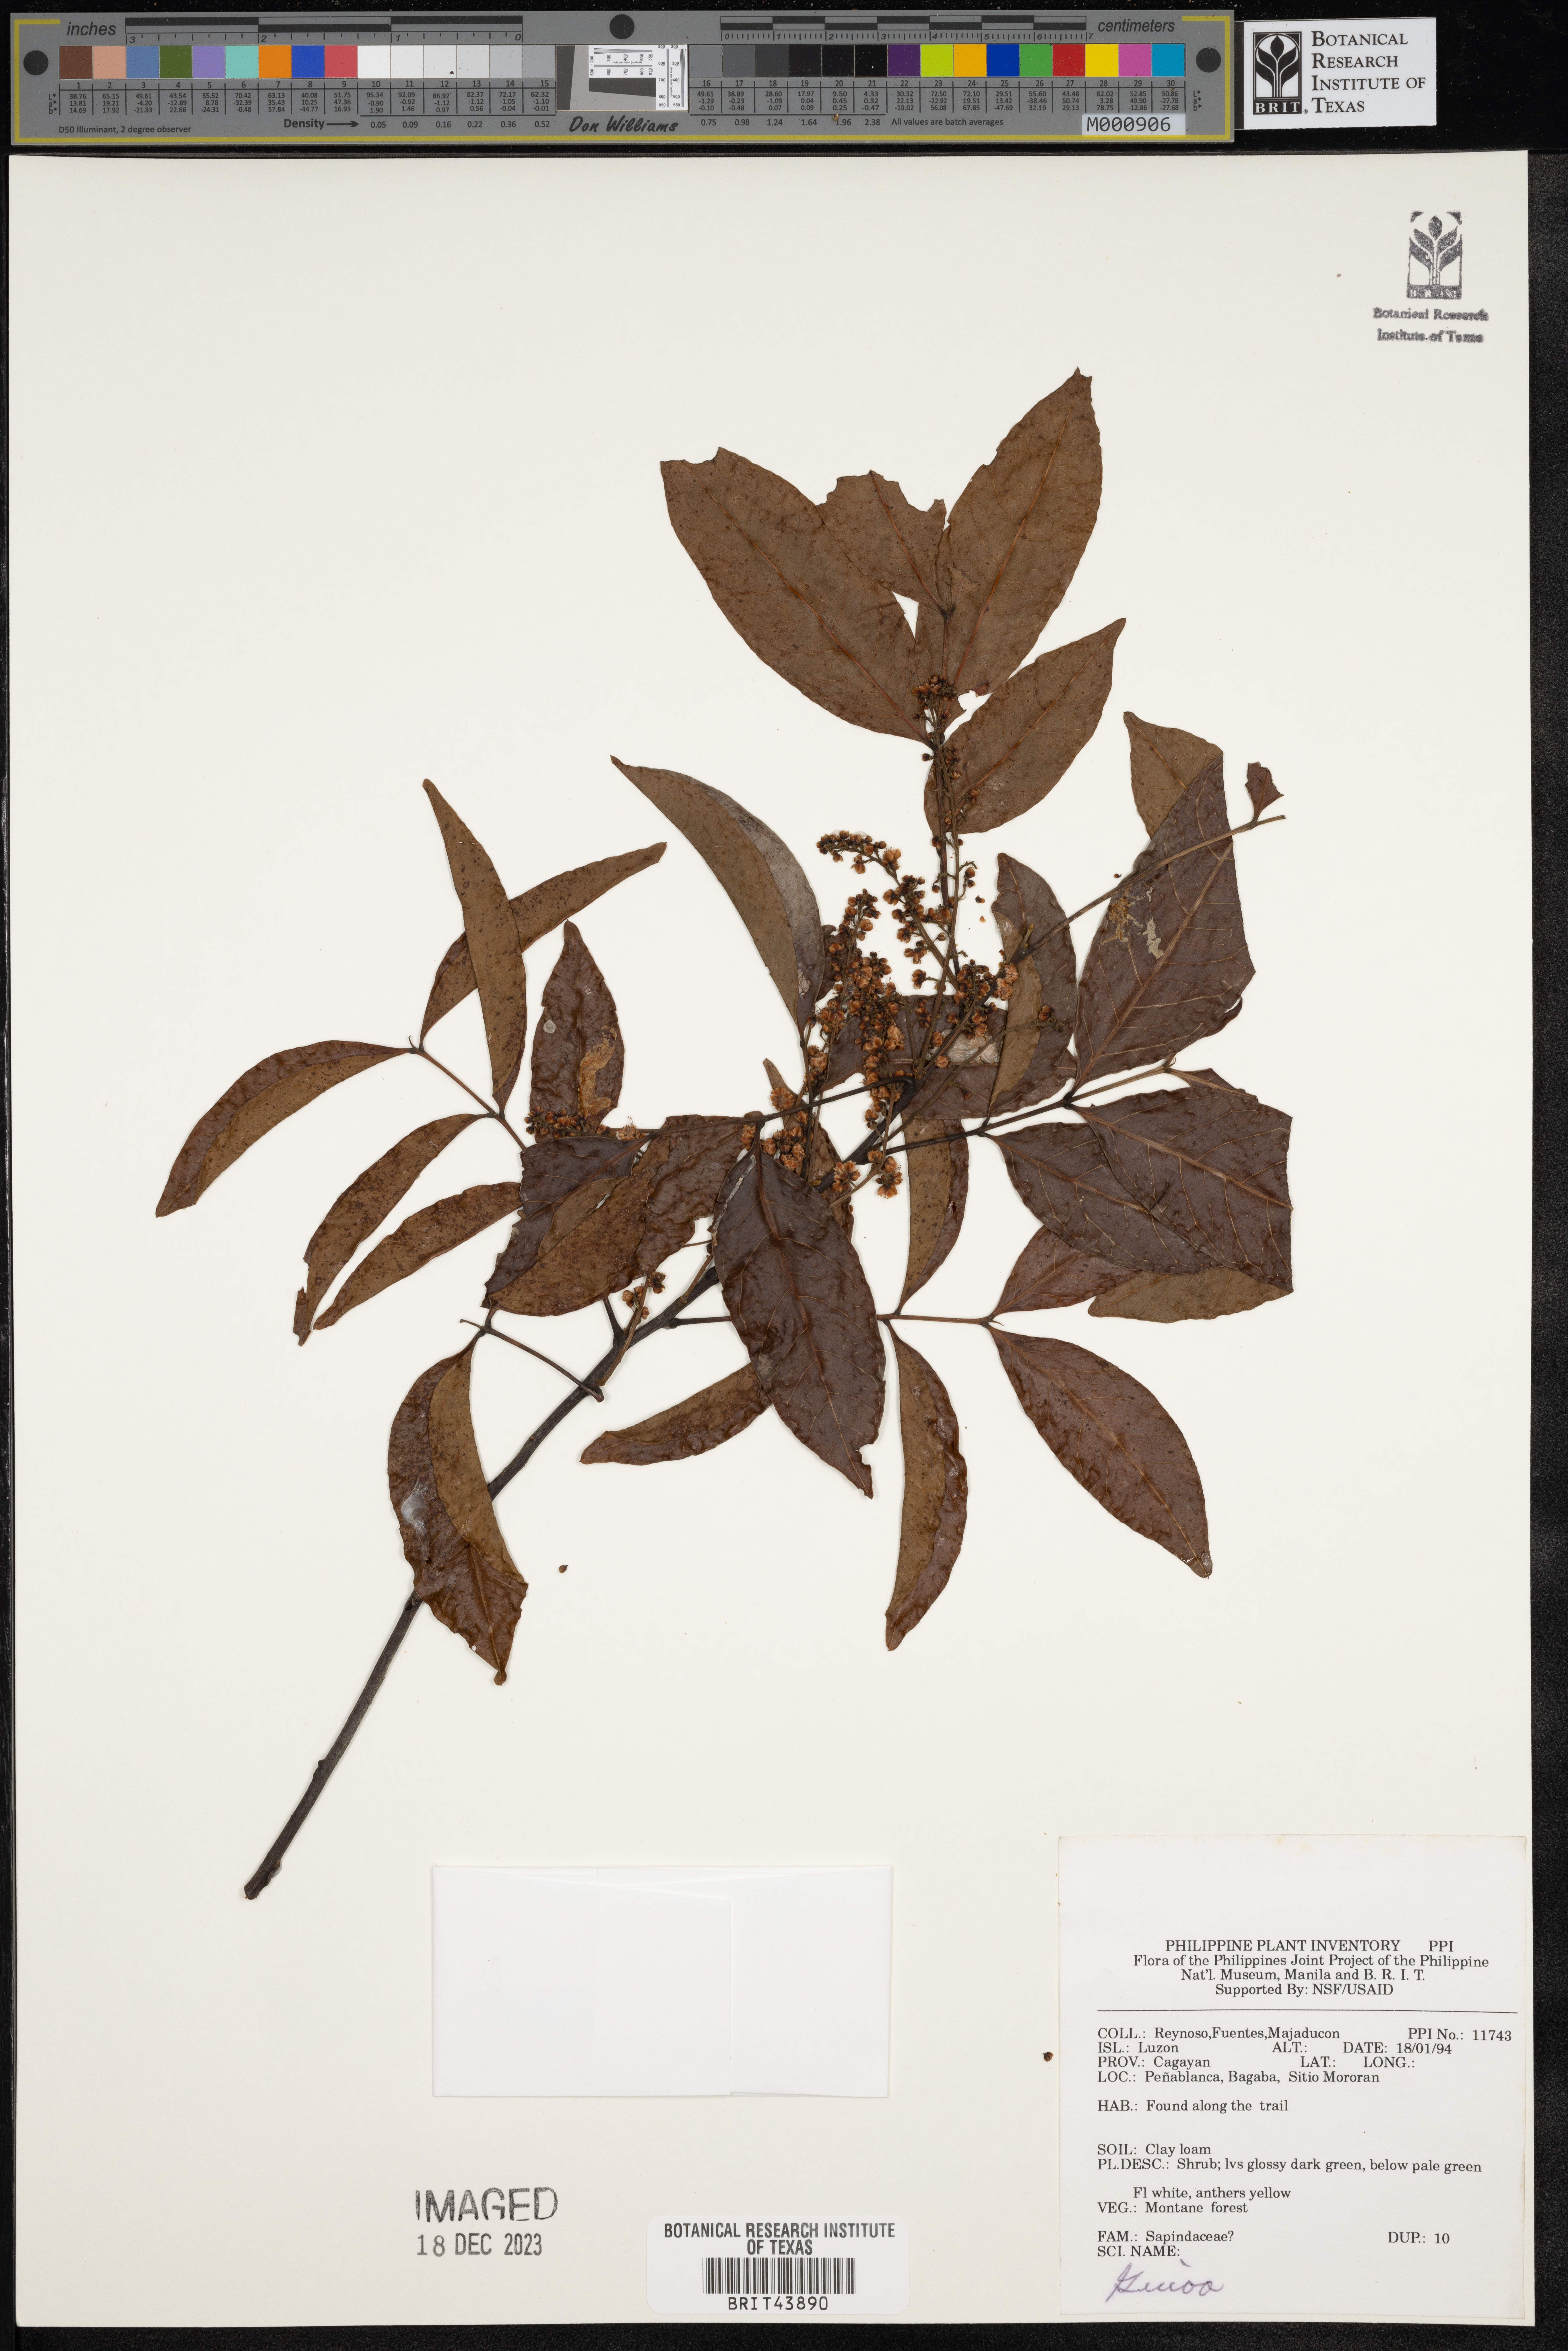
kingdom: Plantae
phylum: Tracheophyta
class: Magnoliopsida
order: Sapindales
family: Sapindaceae
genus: Guioa
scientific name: Guioa
